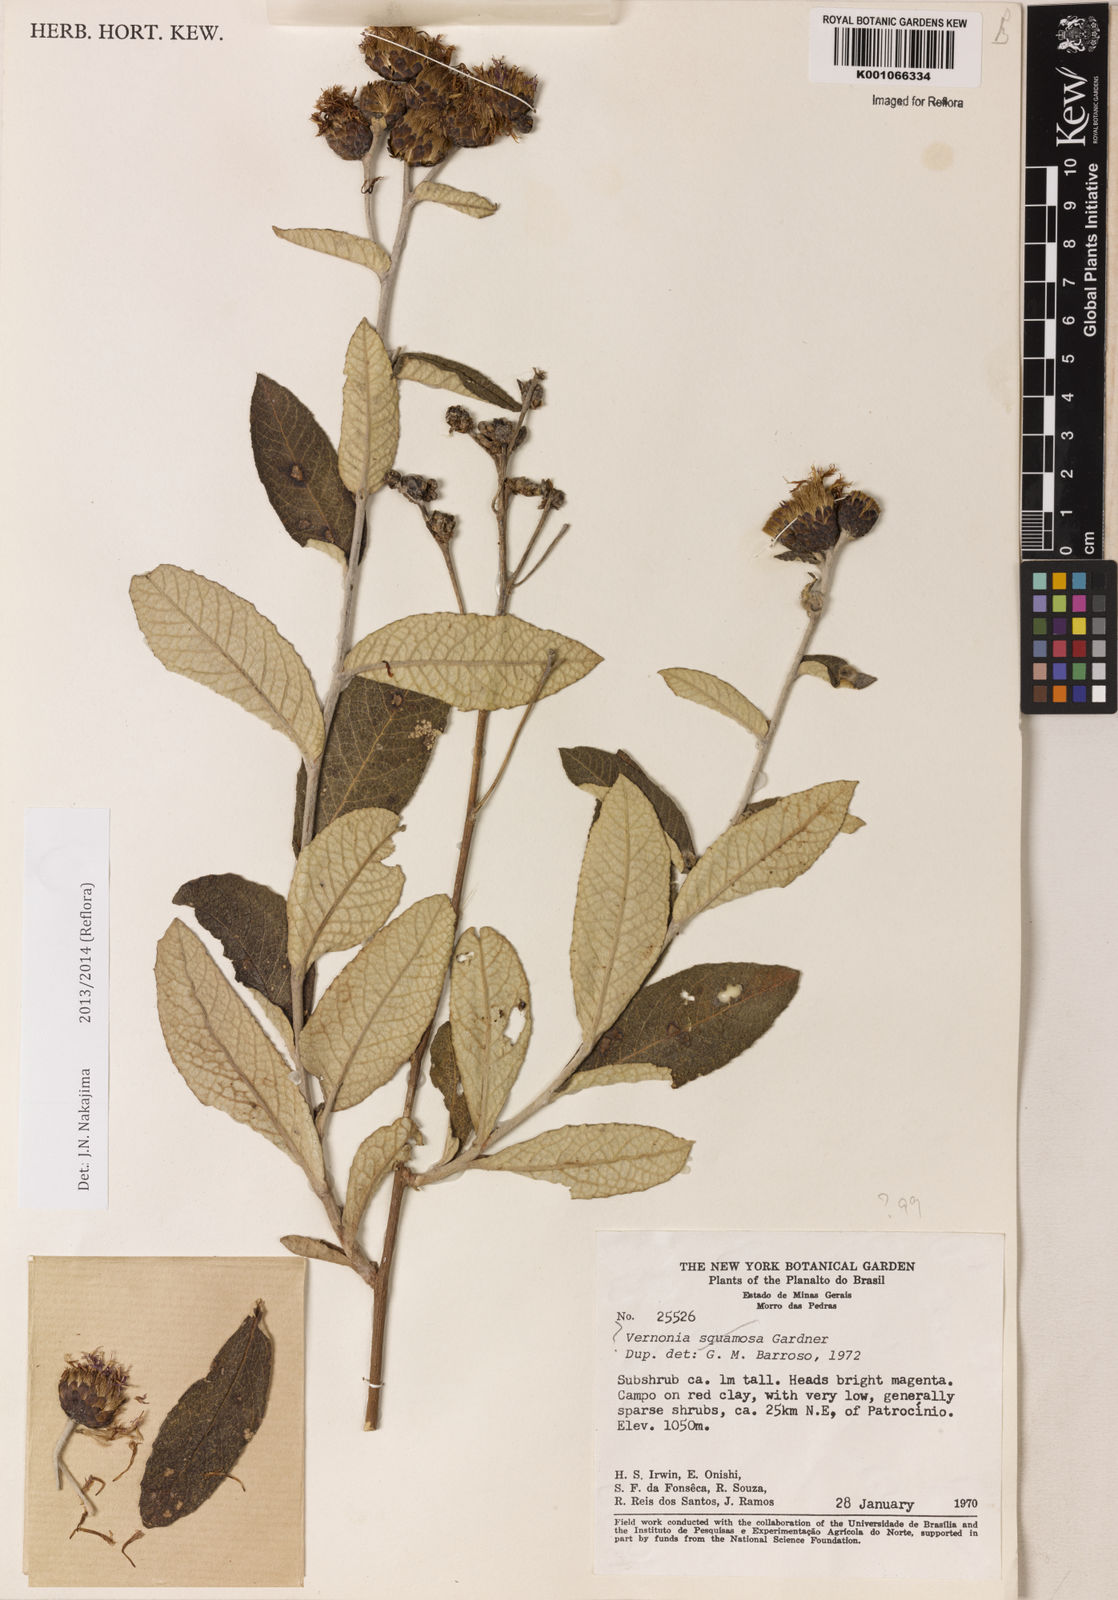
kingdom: Plantae
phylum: Tracheophyta
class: Magnoliopsida
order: Asterales
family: Asteraceae
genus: Lessingianthus
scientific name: Lessingianthus farinosus
